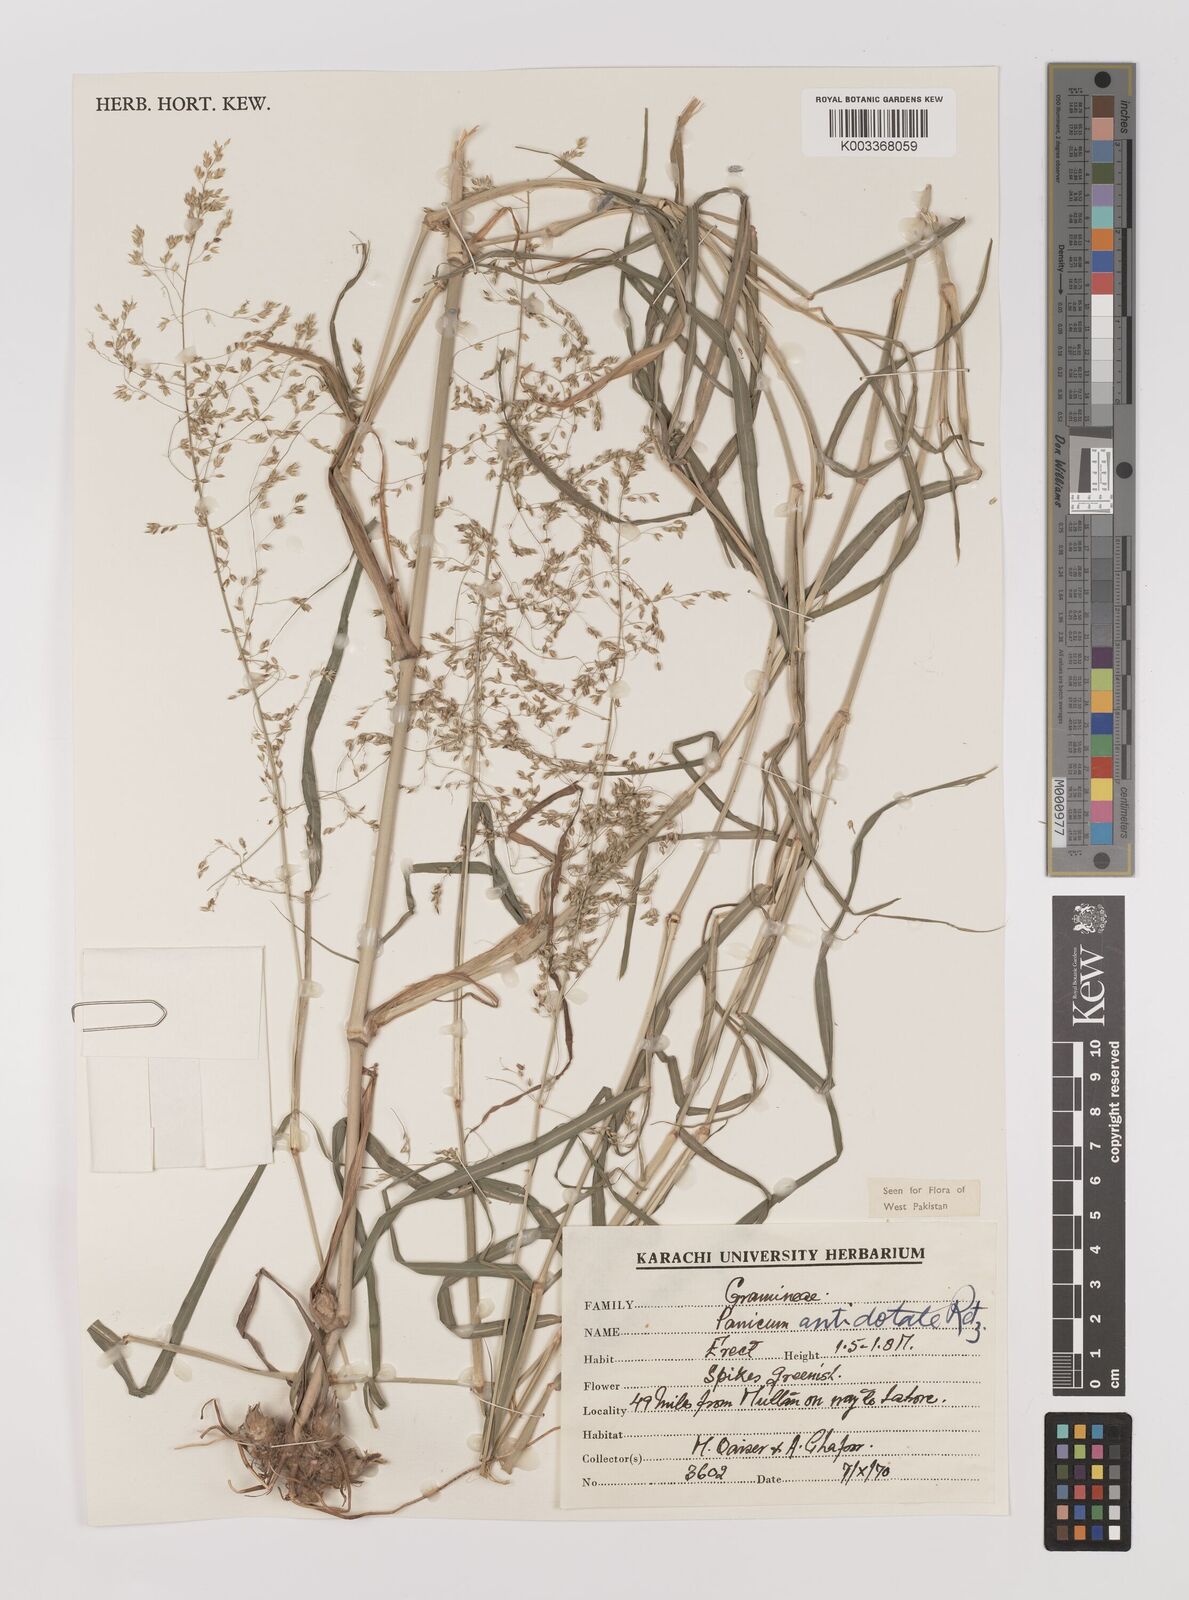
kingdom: Plantae
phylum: Tracheophyta
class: Liliopsida
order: Poales
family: Poaceae
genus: Panicum
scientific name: Panicum antidotale
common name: Blue panicum
